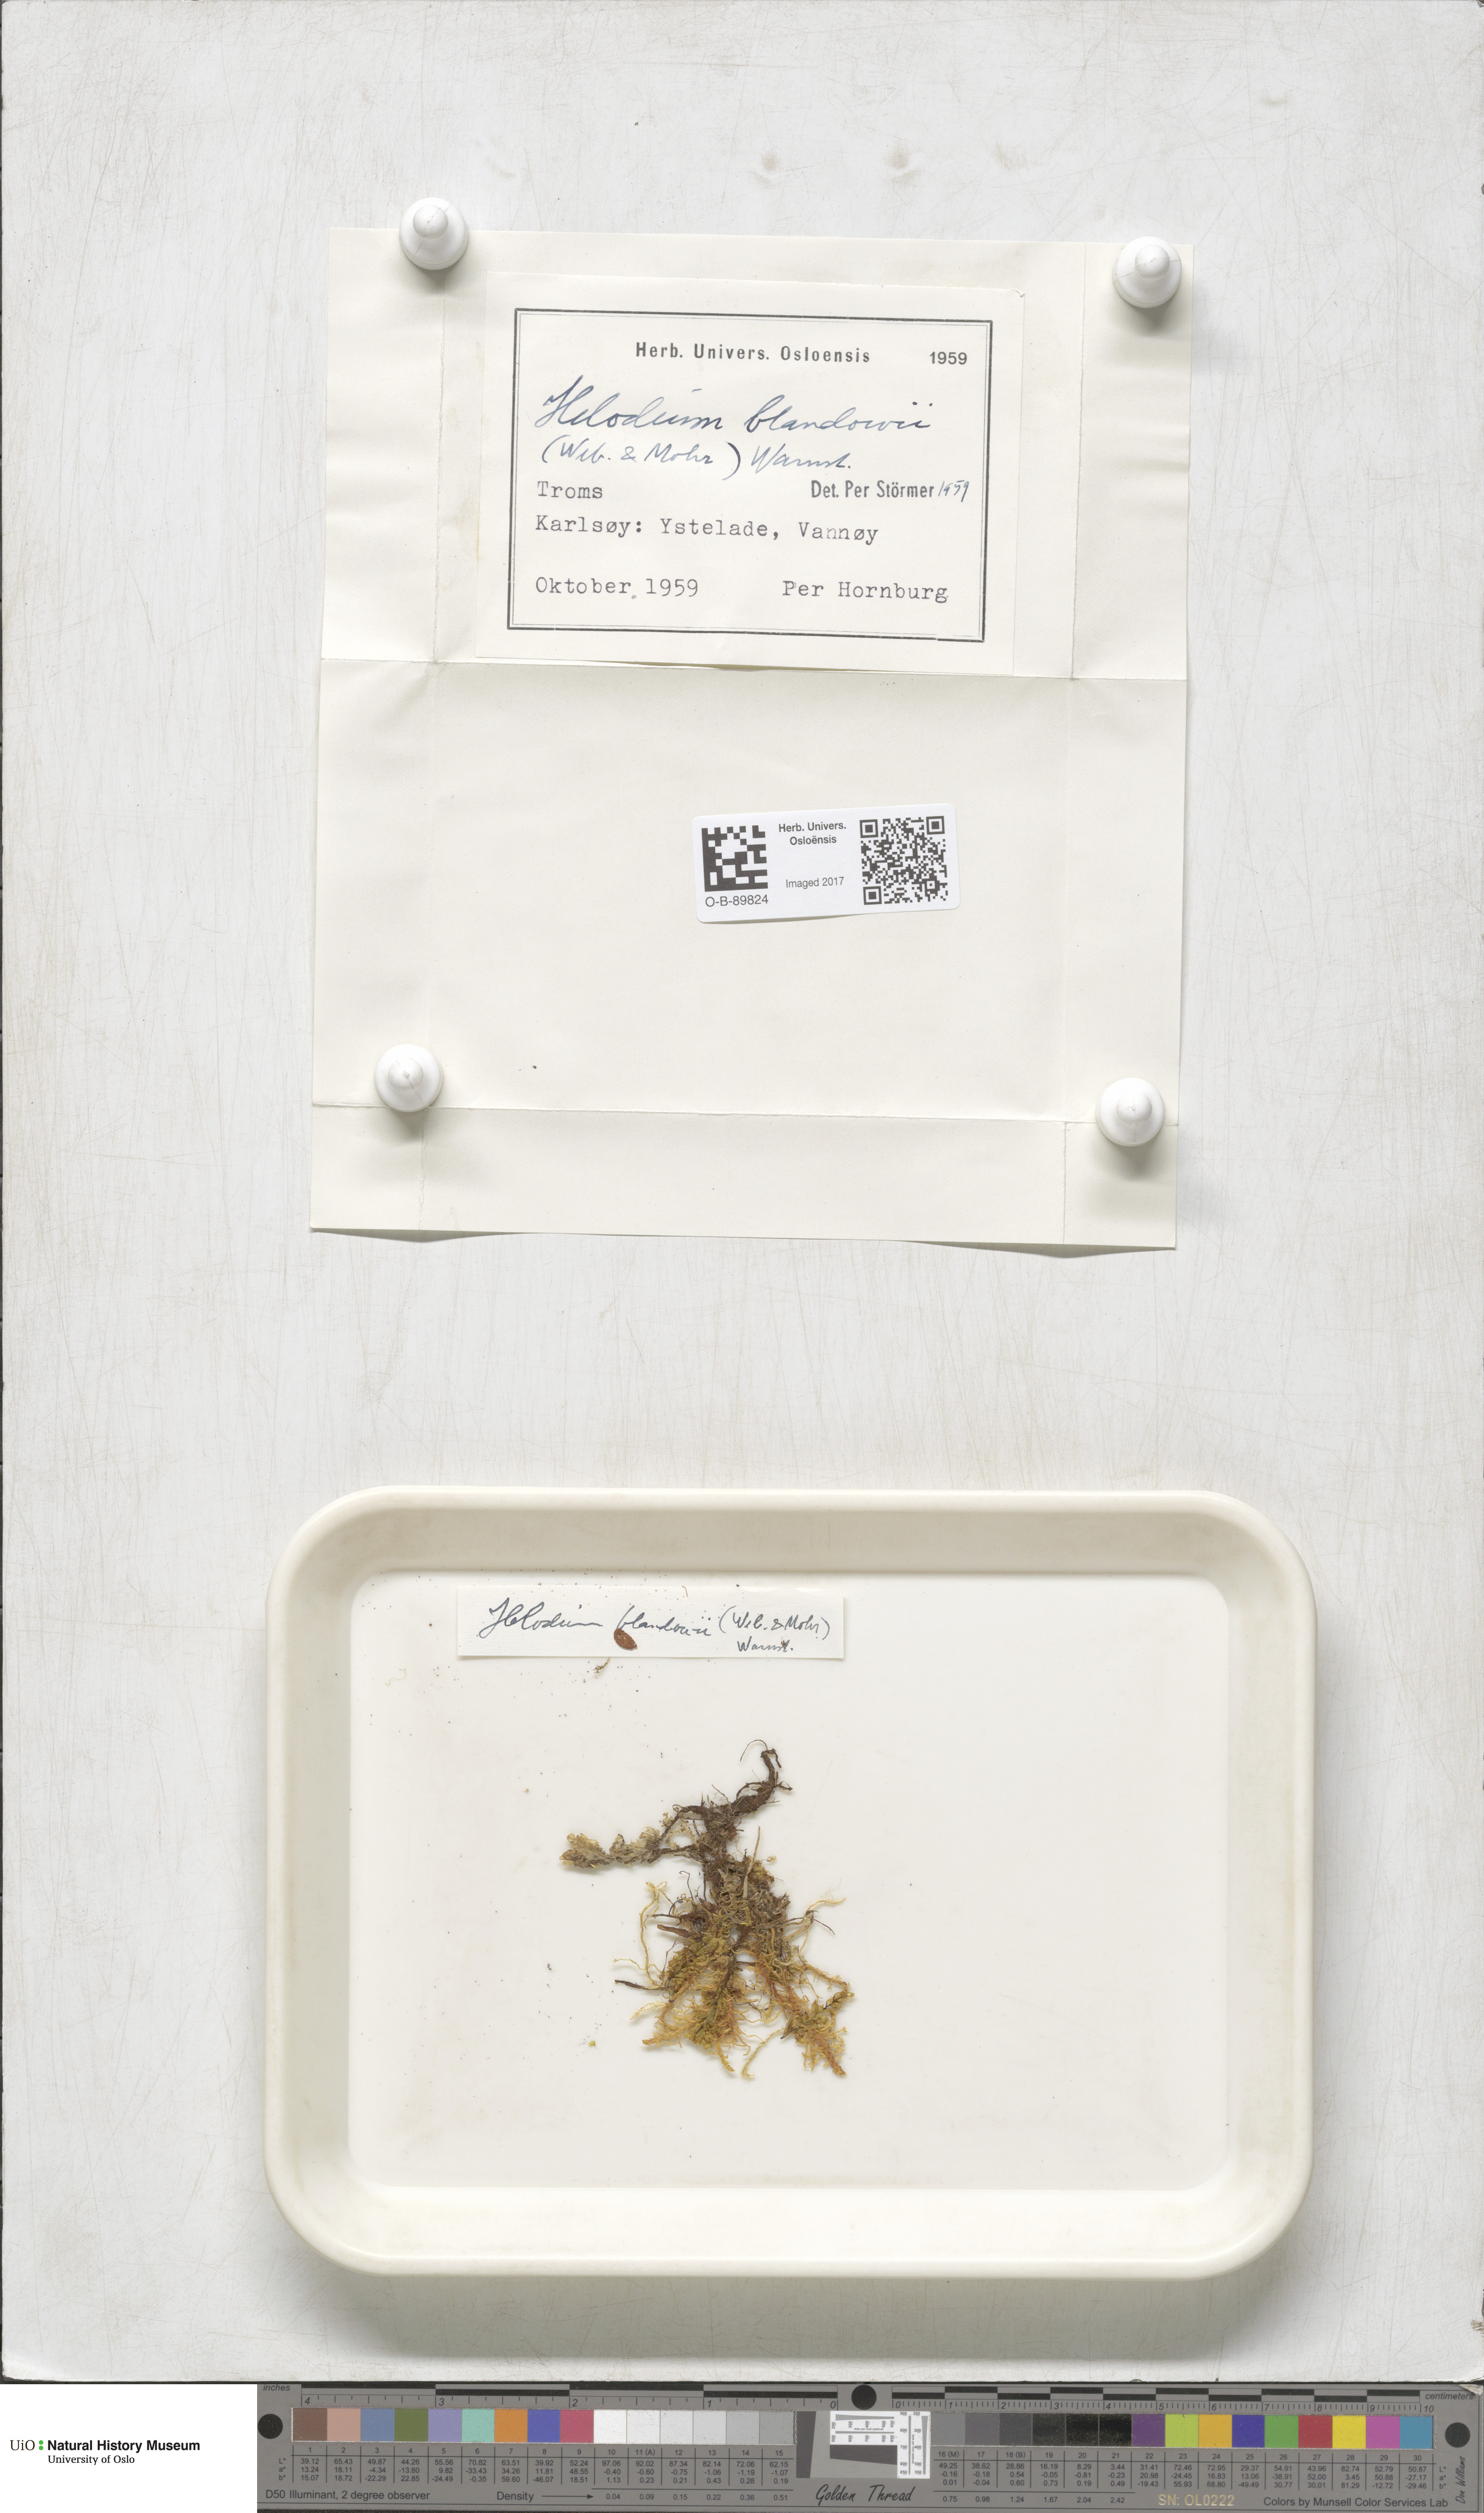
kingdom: Plantae
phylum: Bryophyta
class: Bryopsida
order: Hypnales
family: Helodiaceae
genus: Helodium
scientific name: Helodium blandowii
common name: Blandow's tamarisk-moss
